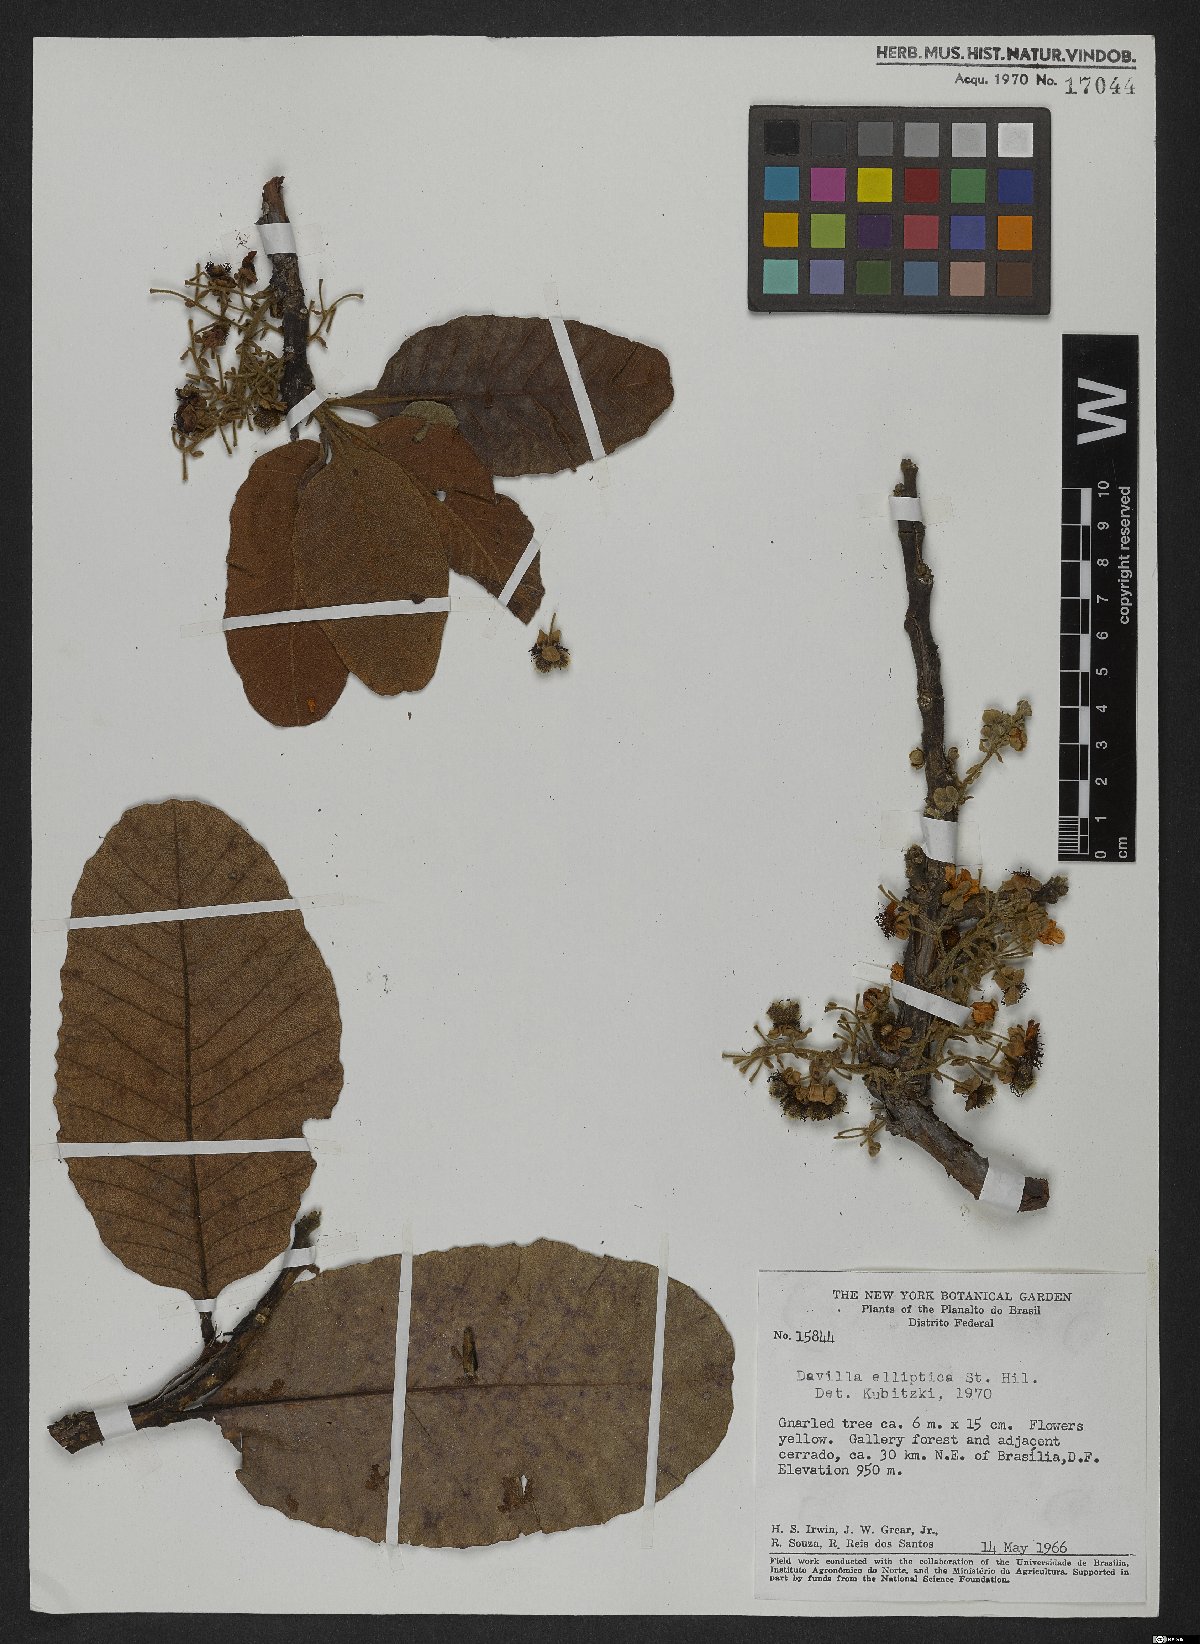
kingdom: Plantae
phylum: Tracheophyta
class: Magnoliopsida
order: Dilleniales
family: Dilleniaceae
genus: Davilla
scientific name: Davilla elliptica
